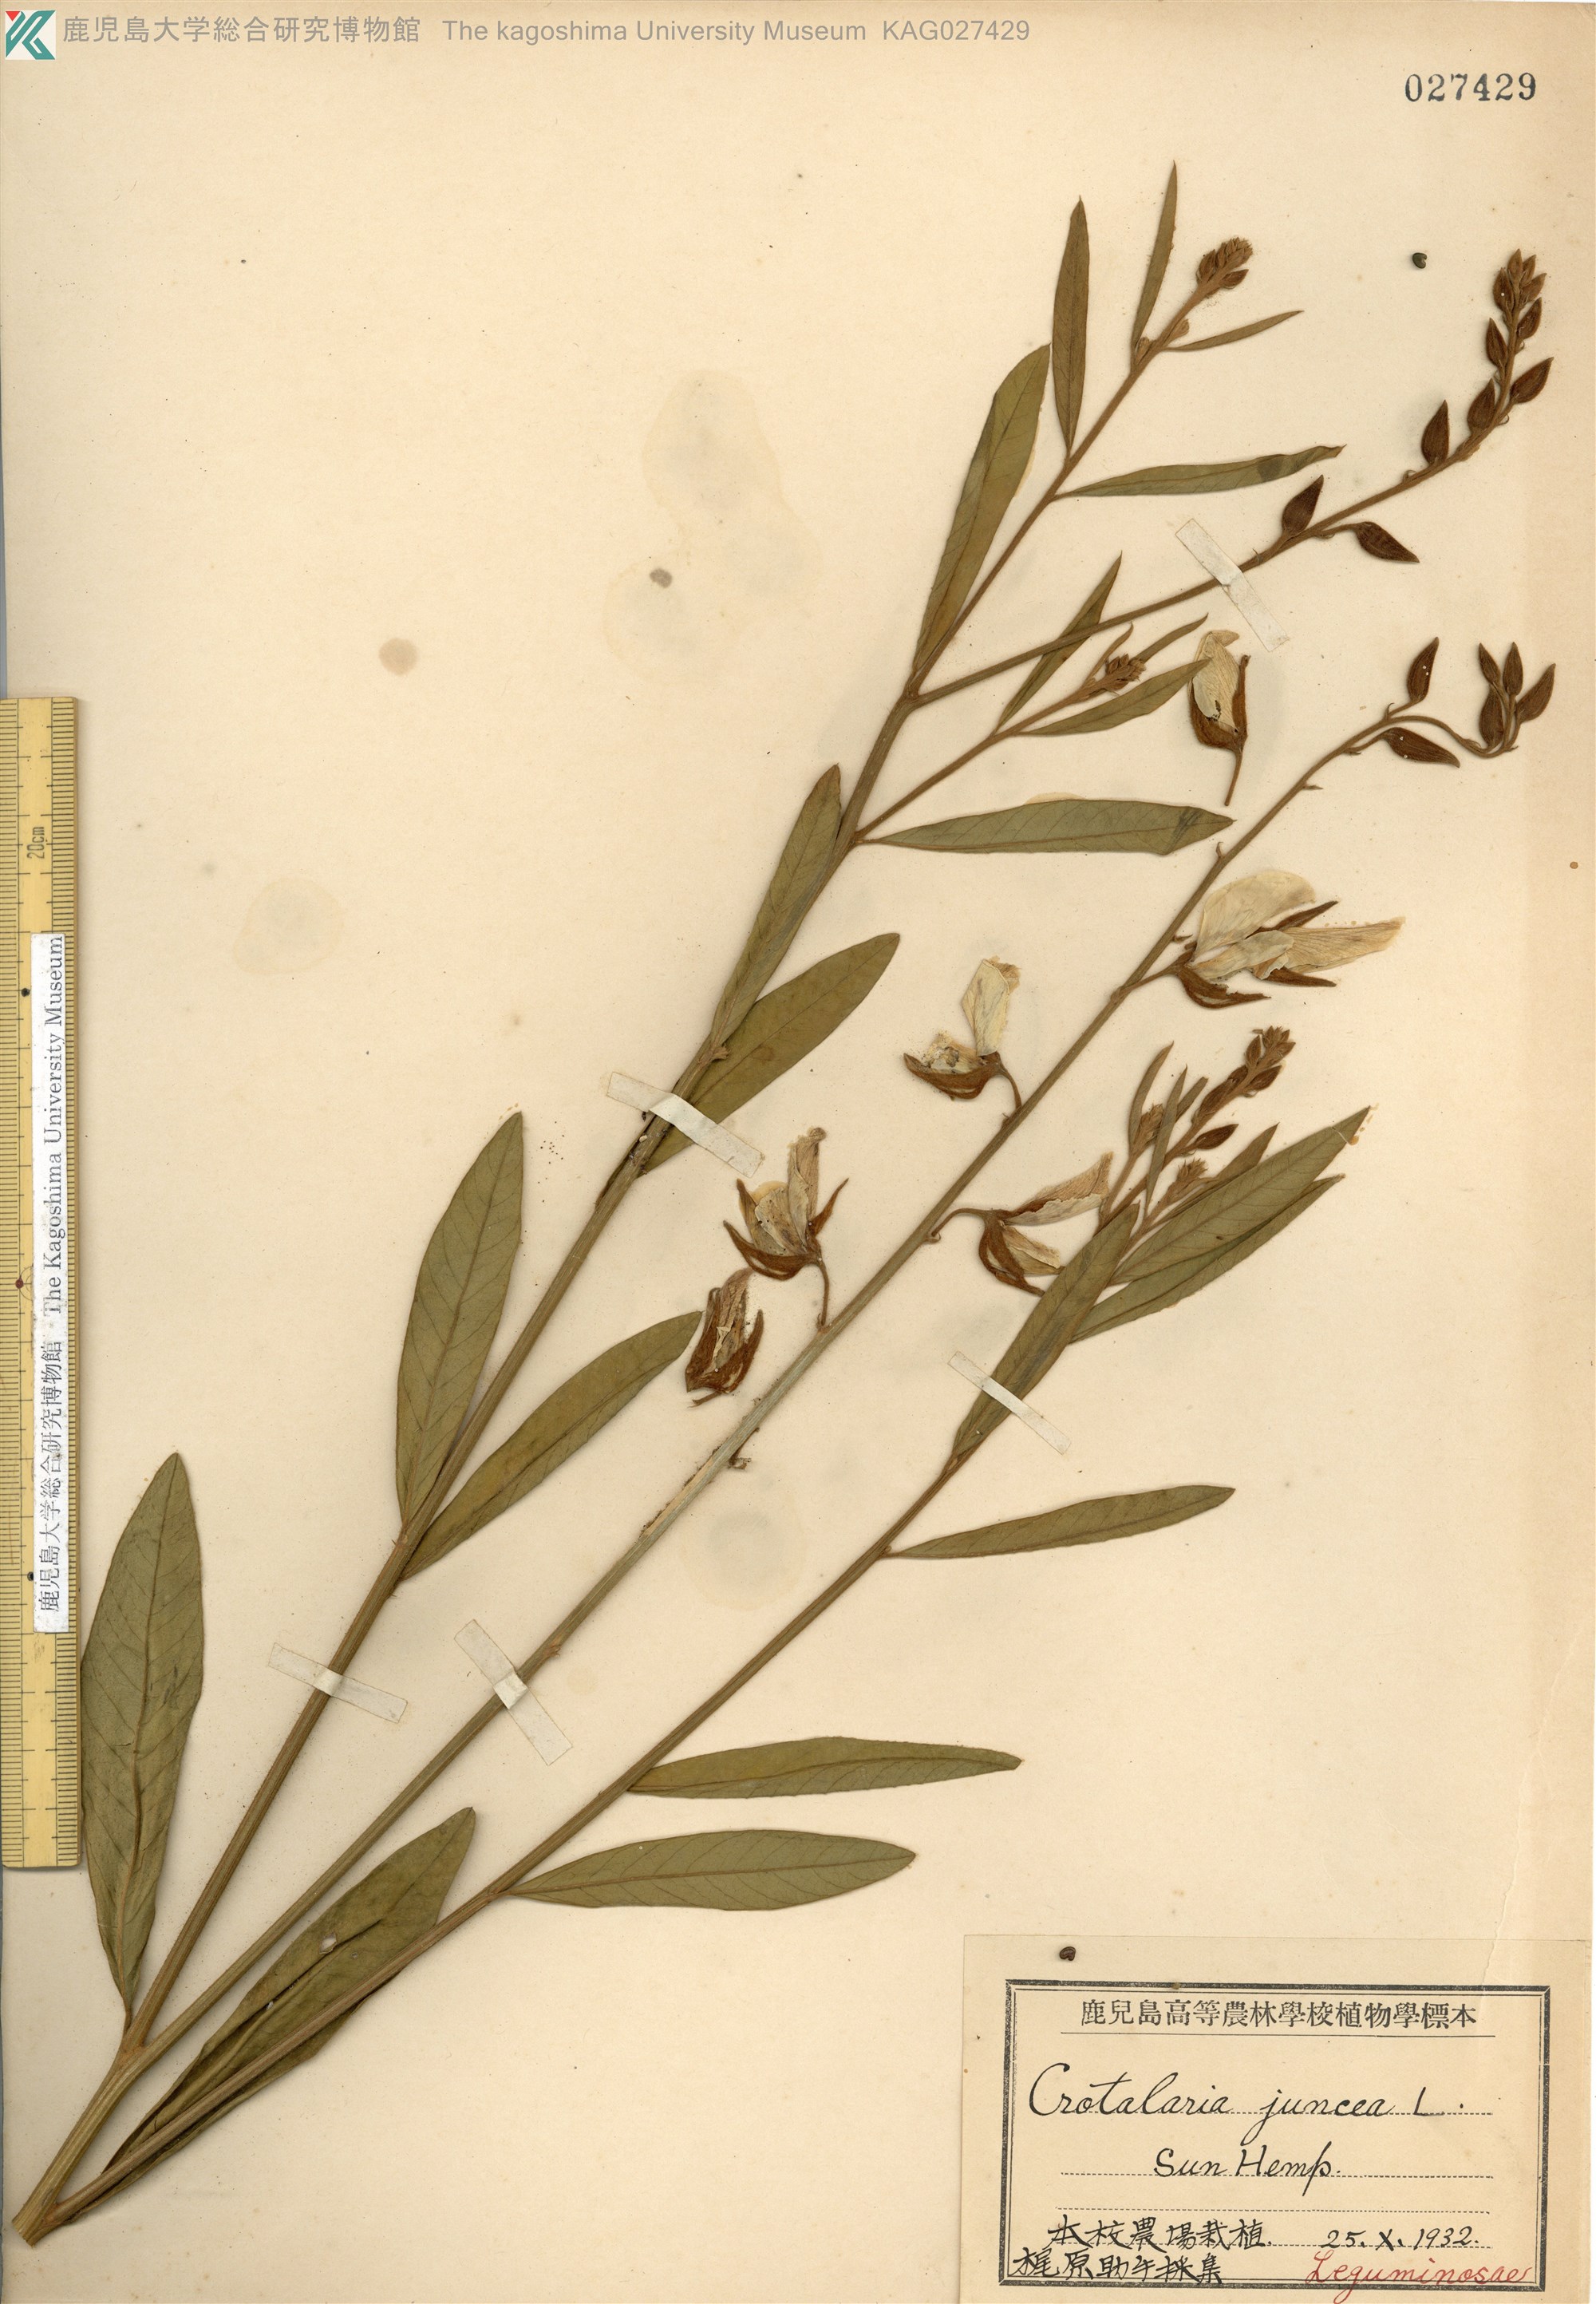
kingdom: Plantae
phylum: Tracheophyta
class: Magnoliopsida
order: Fabales
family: Fabaceae
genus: Crotalaria
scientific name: Crotalaria juncea
